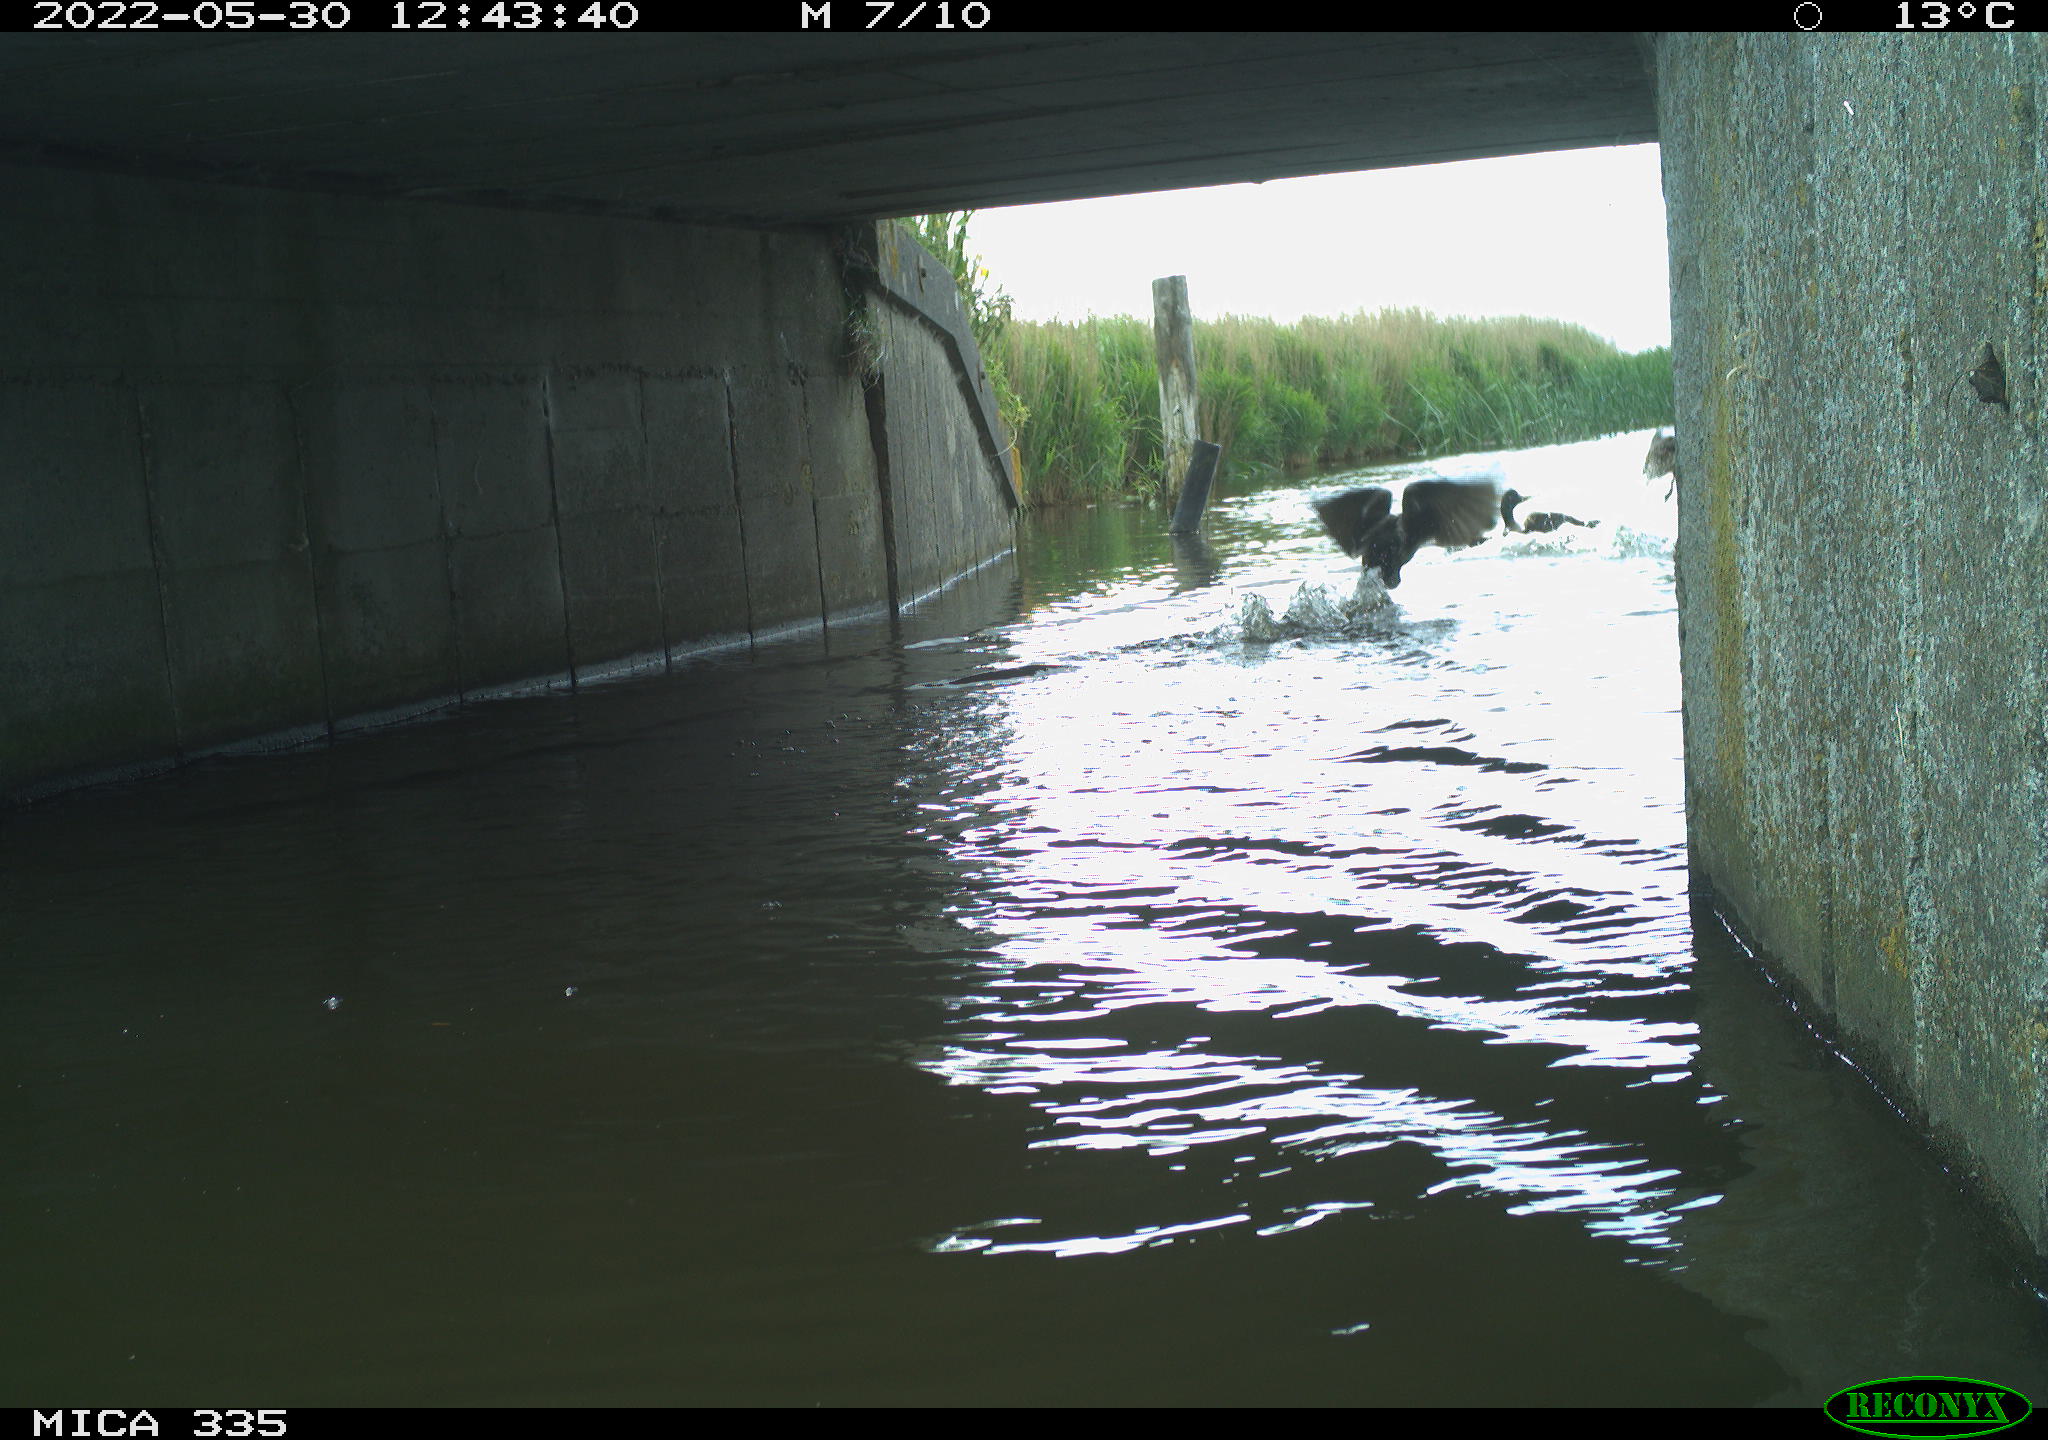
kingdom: Animalia
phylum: Chordata
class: Aves
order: Anseriformes
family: Anatidae
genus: Anas
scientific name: Anas platyrhynchos
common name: Mallard
